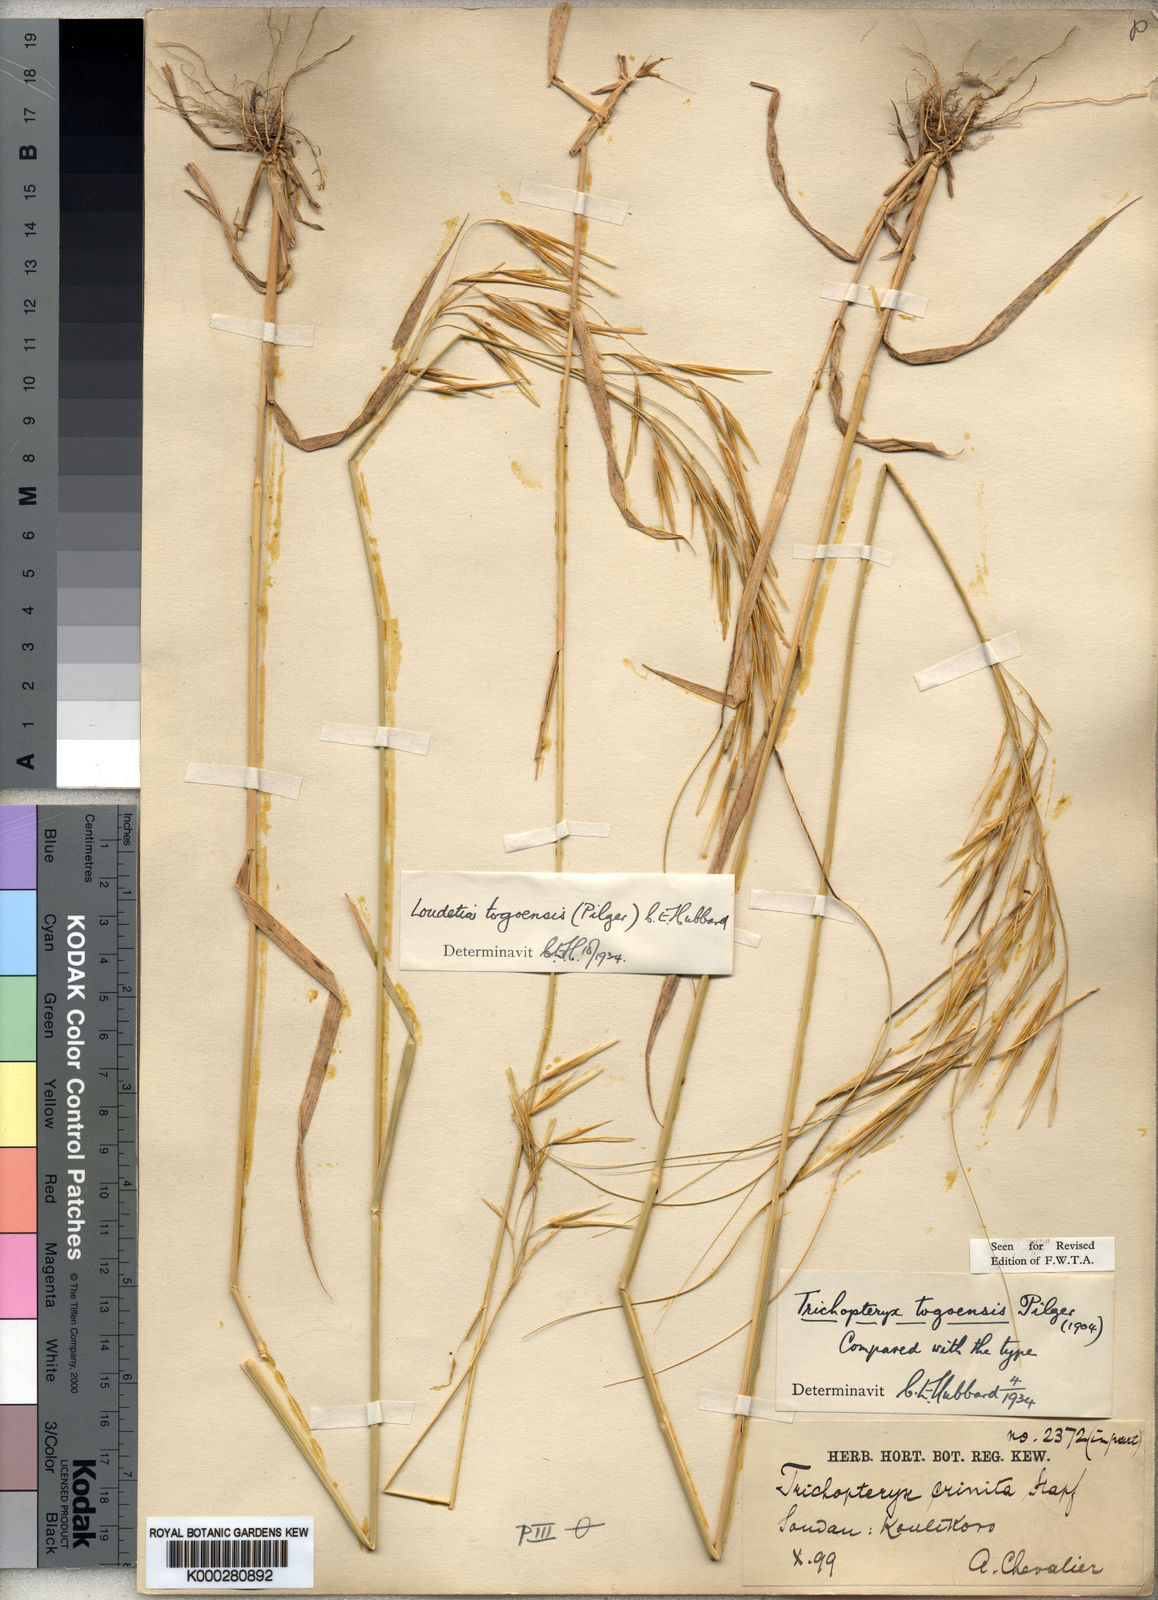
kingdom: Plantae
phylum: Tracheophyta
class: Liliopsida
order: Poales
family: Poaceae
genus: Loudetia
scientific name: Loudetia togoensis
